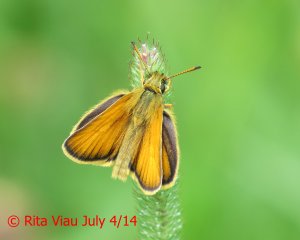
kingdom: Animalia
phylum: Arthropoda
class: Insecta
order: Lepidoptera
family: Hesperiidae
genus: Thymelicus
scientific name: Thymelicus lineola
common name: European Skipper
